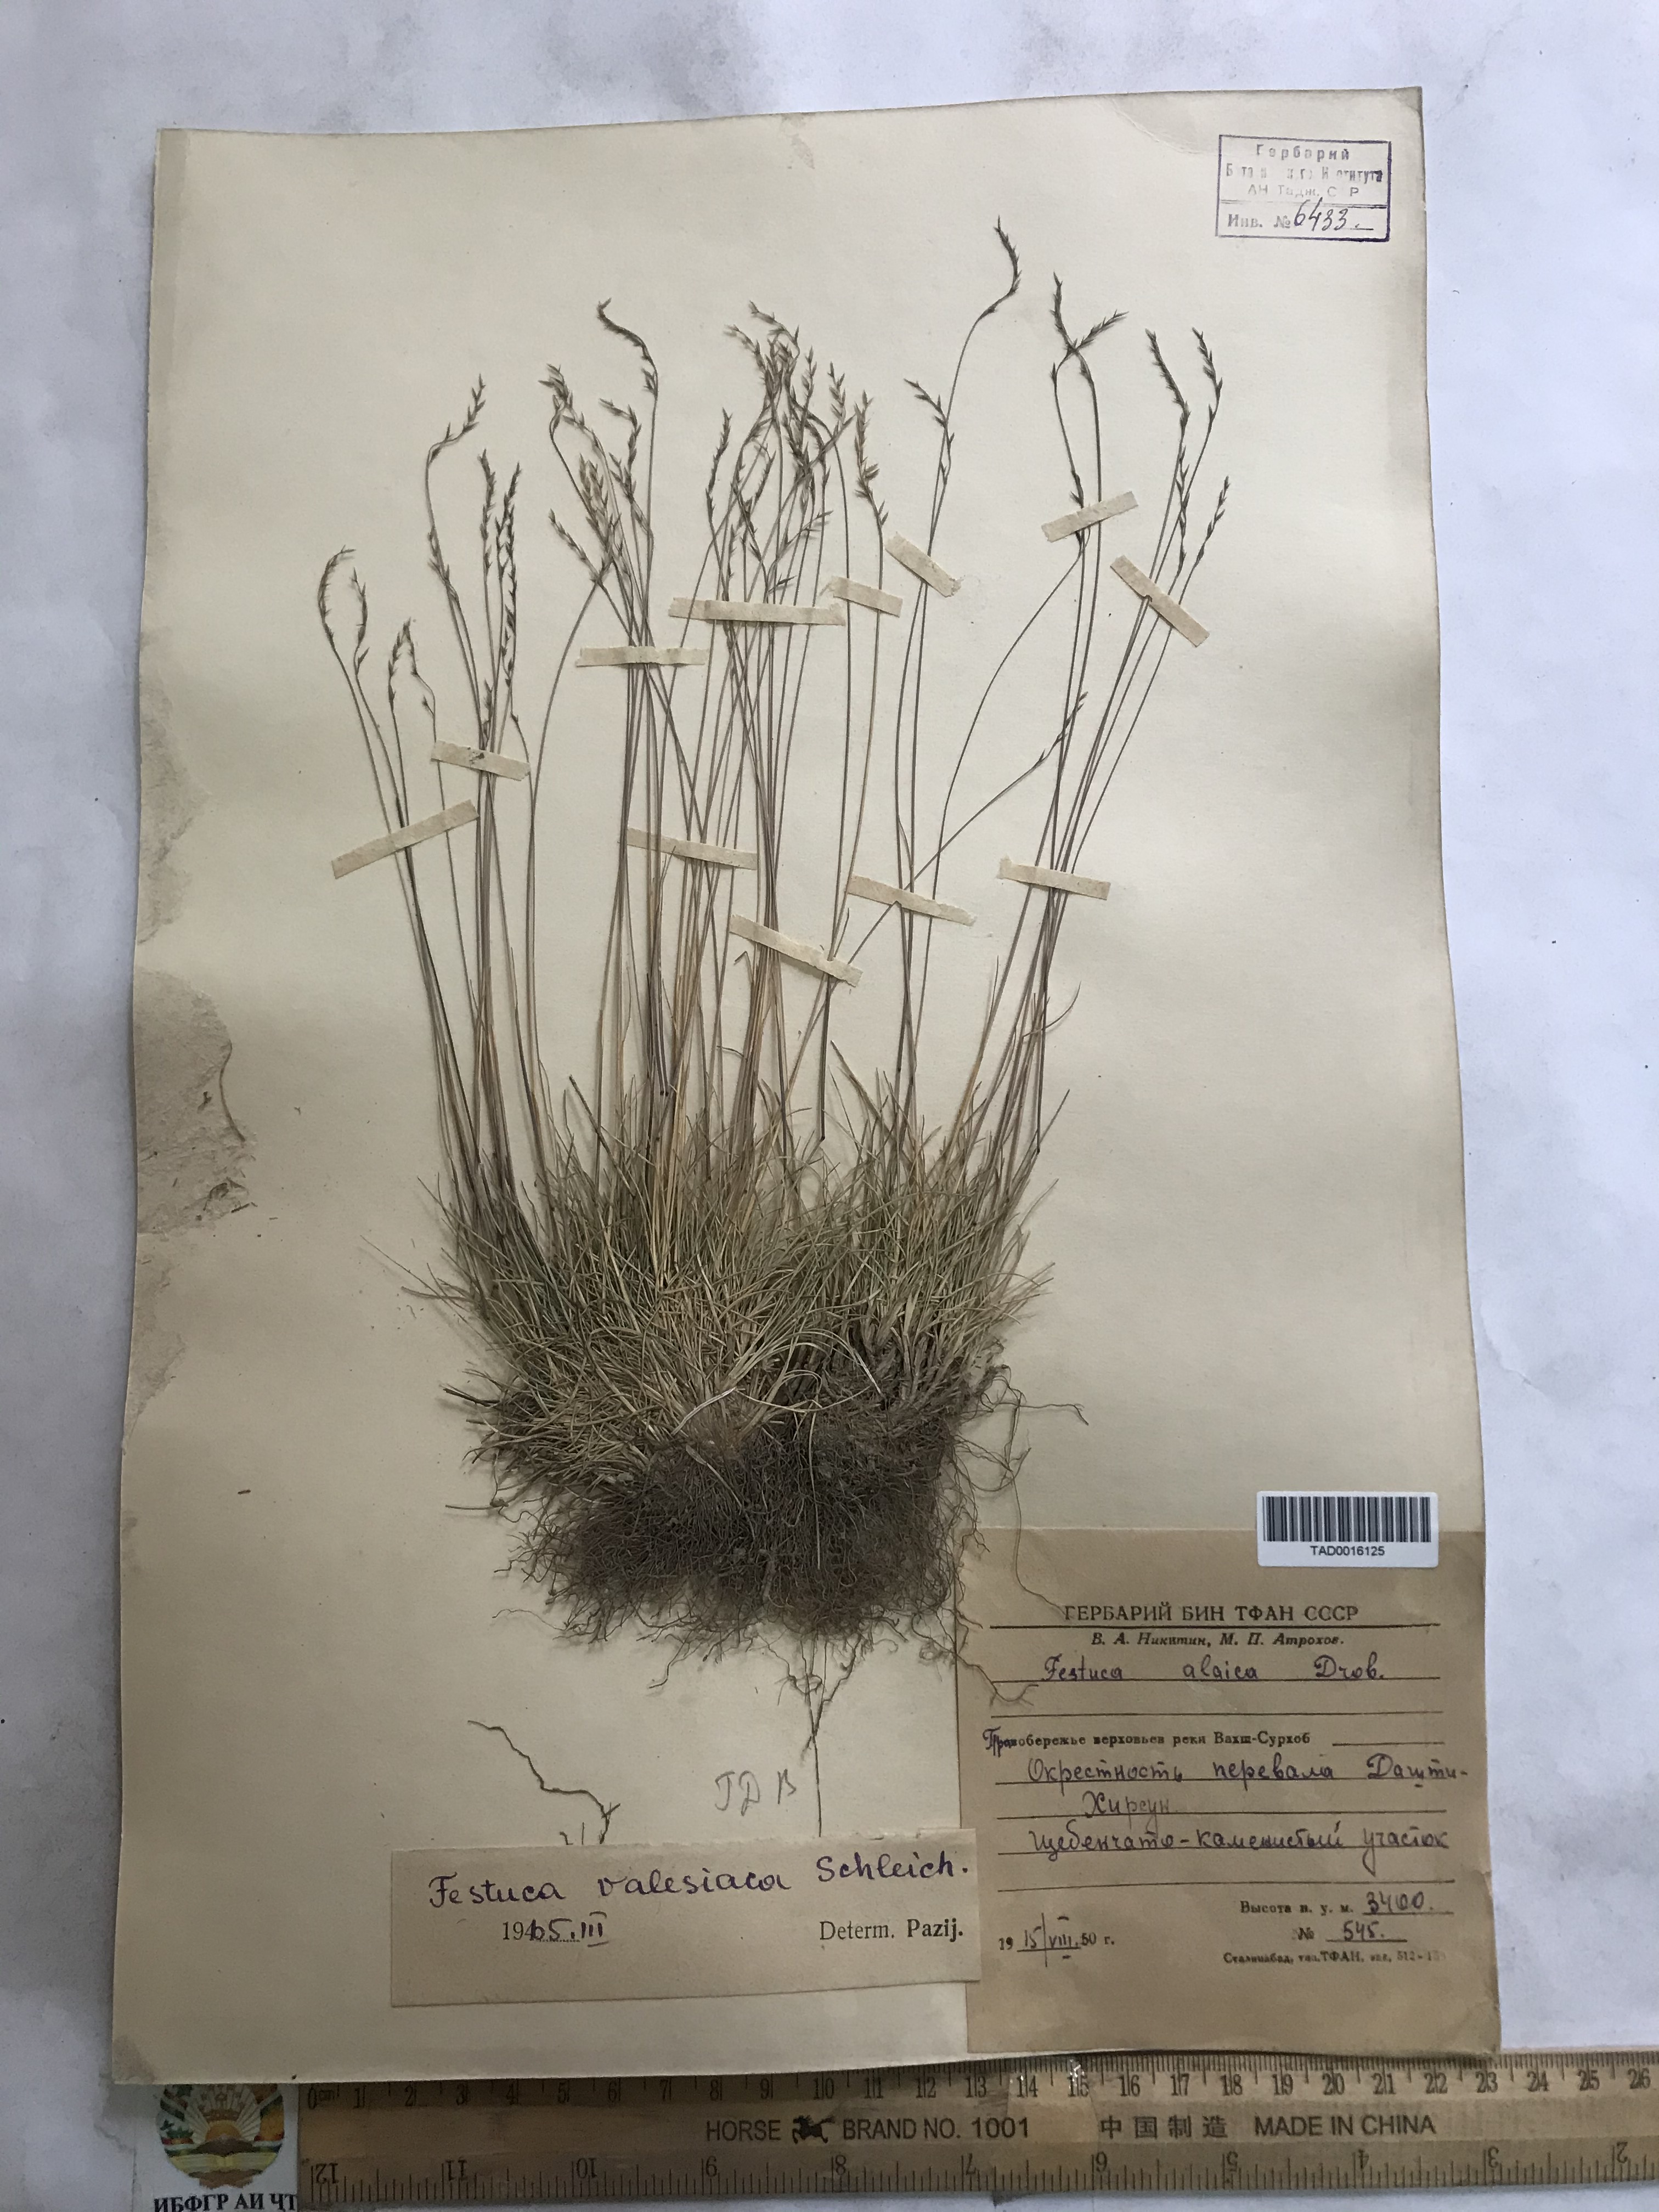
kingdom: Plantae
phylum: Tracheophyta
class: Liliopsida
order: Poales
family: Poaceae
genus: Festuca
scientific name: Festuca valesiaca
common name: Volga fescue
